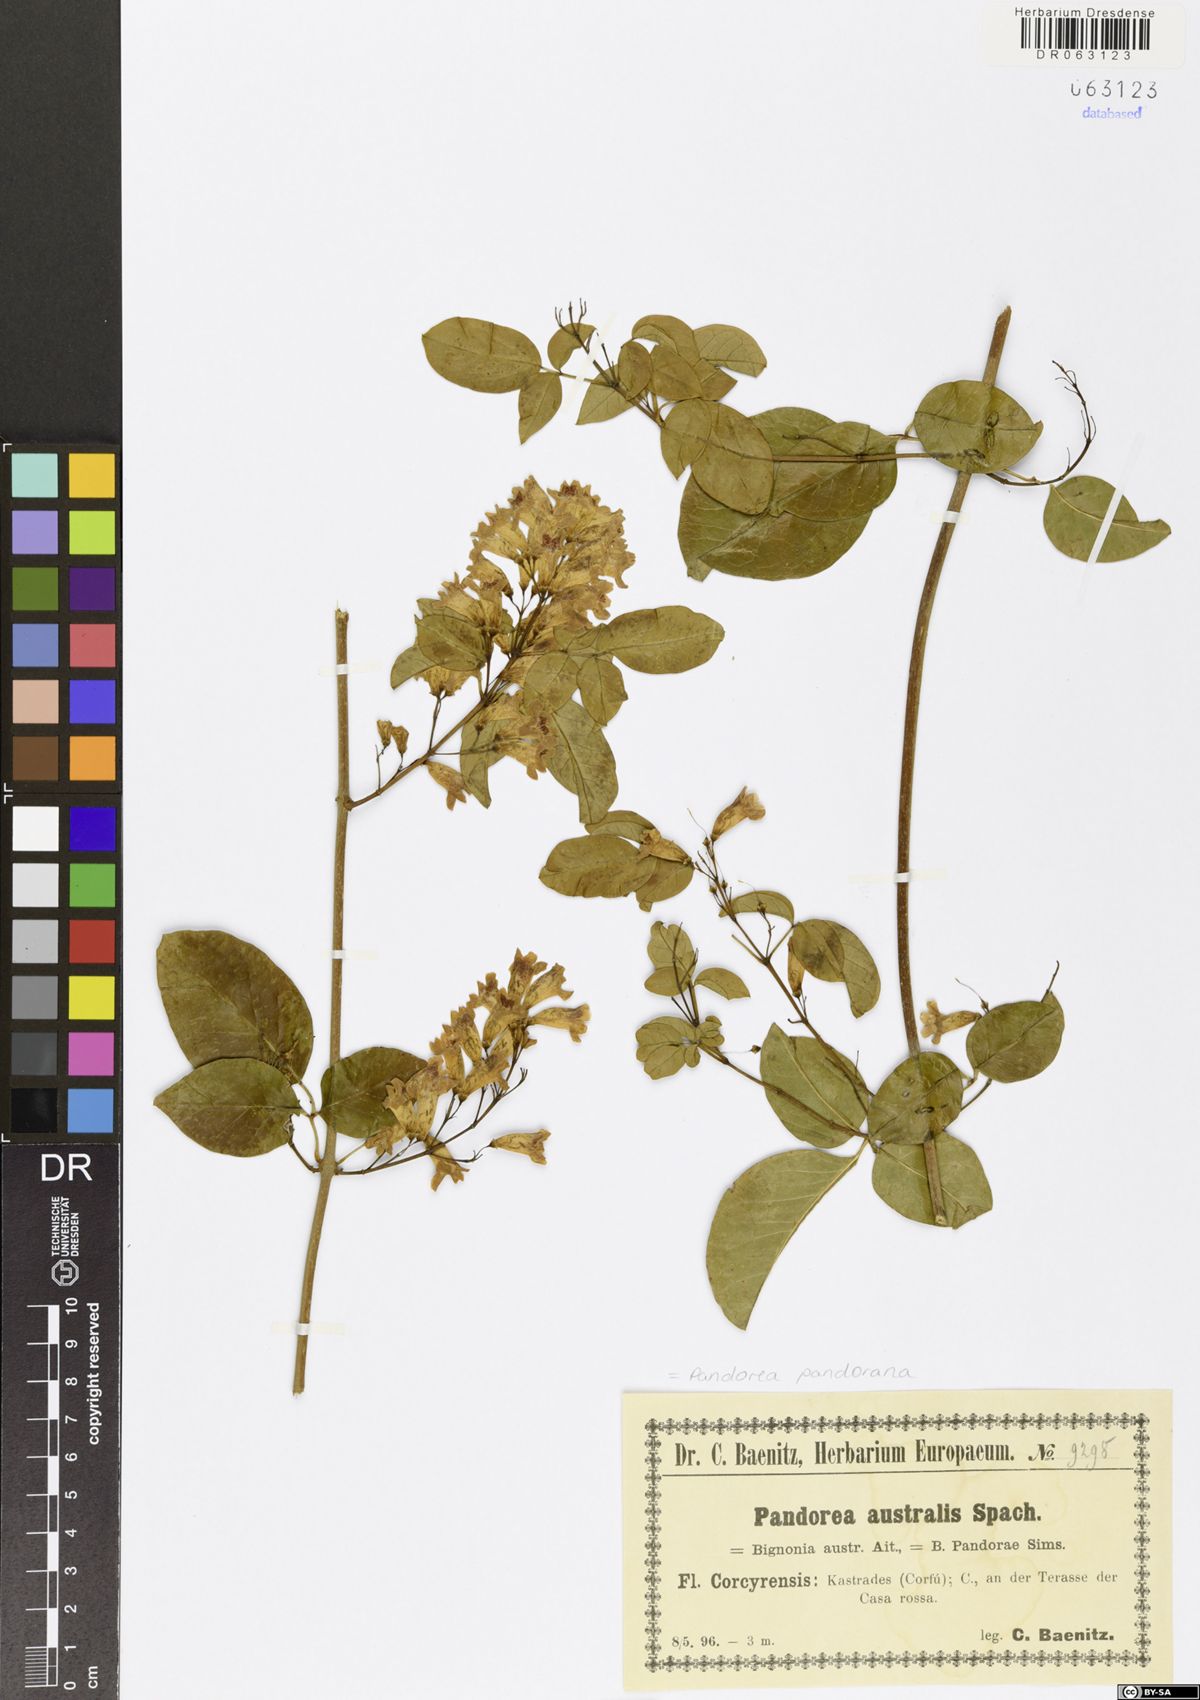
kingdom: Plantae
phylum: Tracheophyta
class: Magnoliopsida
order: Lamiales
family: Bignoniaceae
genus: Pandorea
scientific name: Pandorea pandorana
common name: Wonga-wonga-vine
